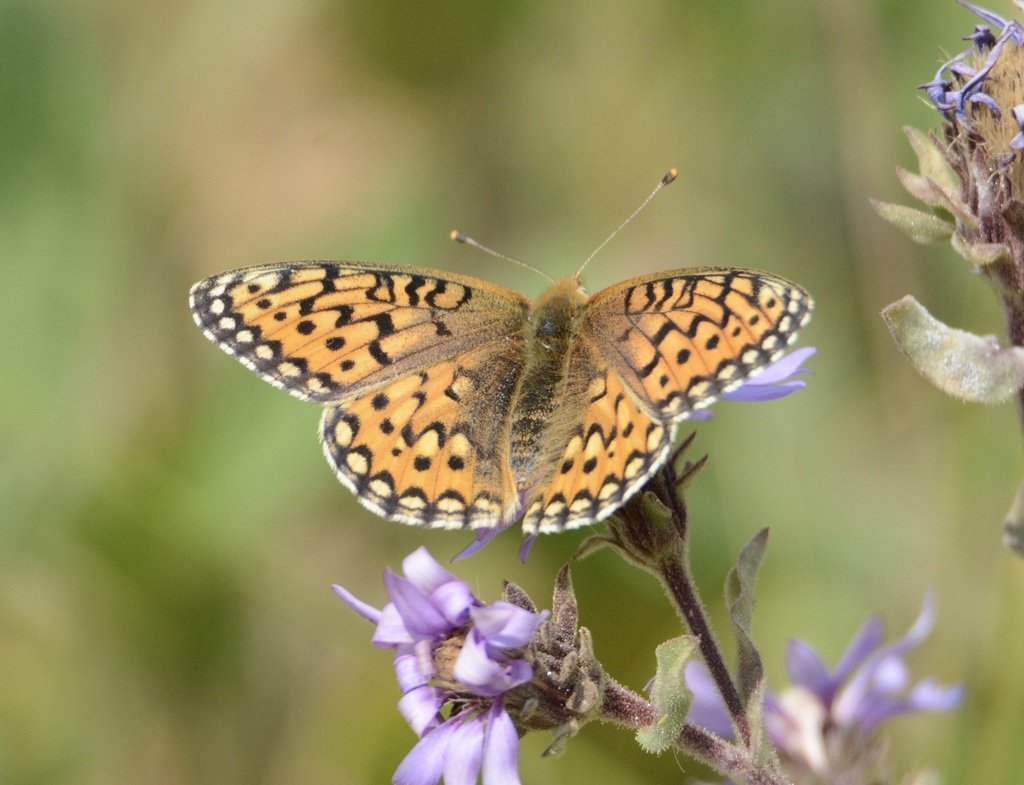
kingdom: Animalia
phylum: Arthropoda
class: Insecta
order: Lepidoptera
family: Nymphalidae
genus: Speyeria
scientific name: Speyeria mormonia
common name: Mormon Fritillary
